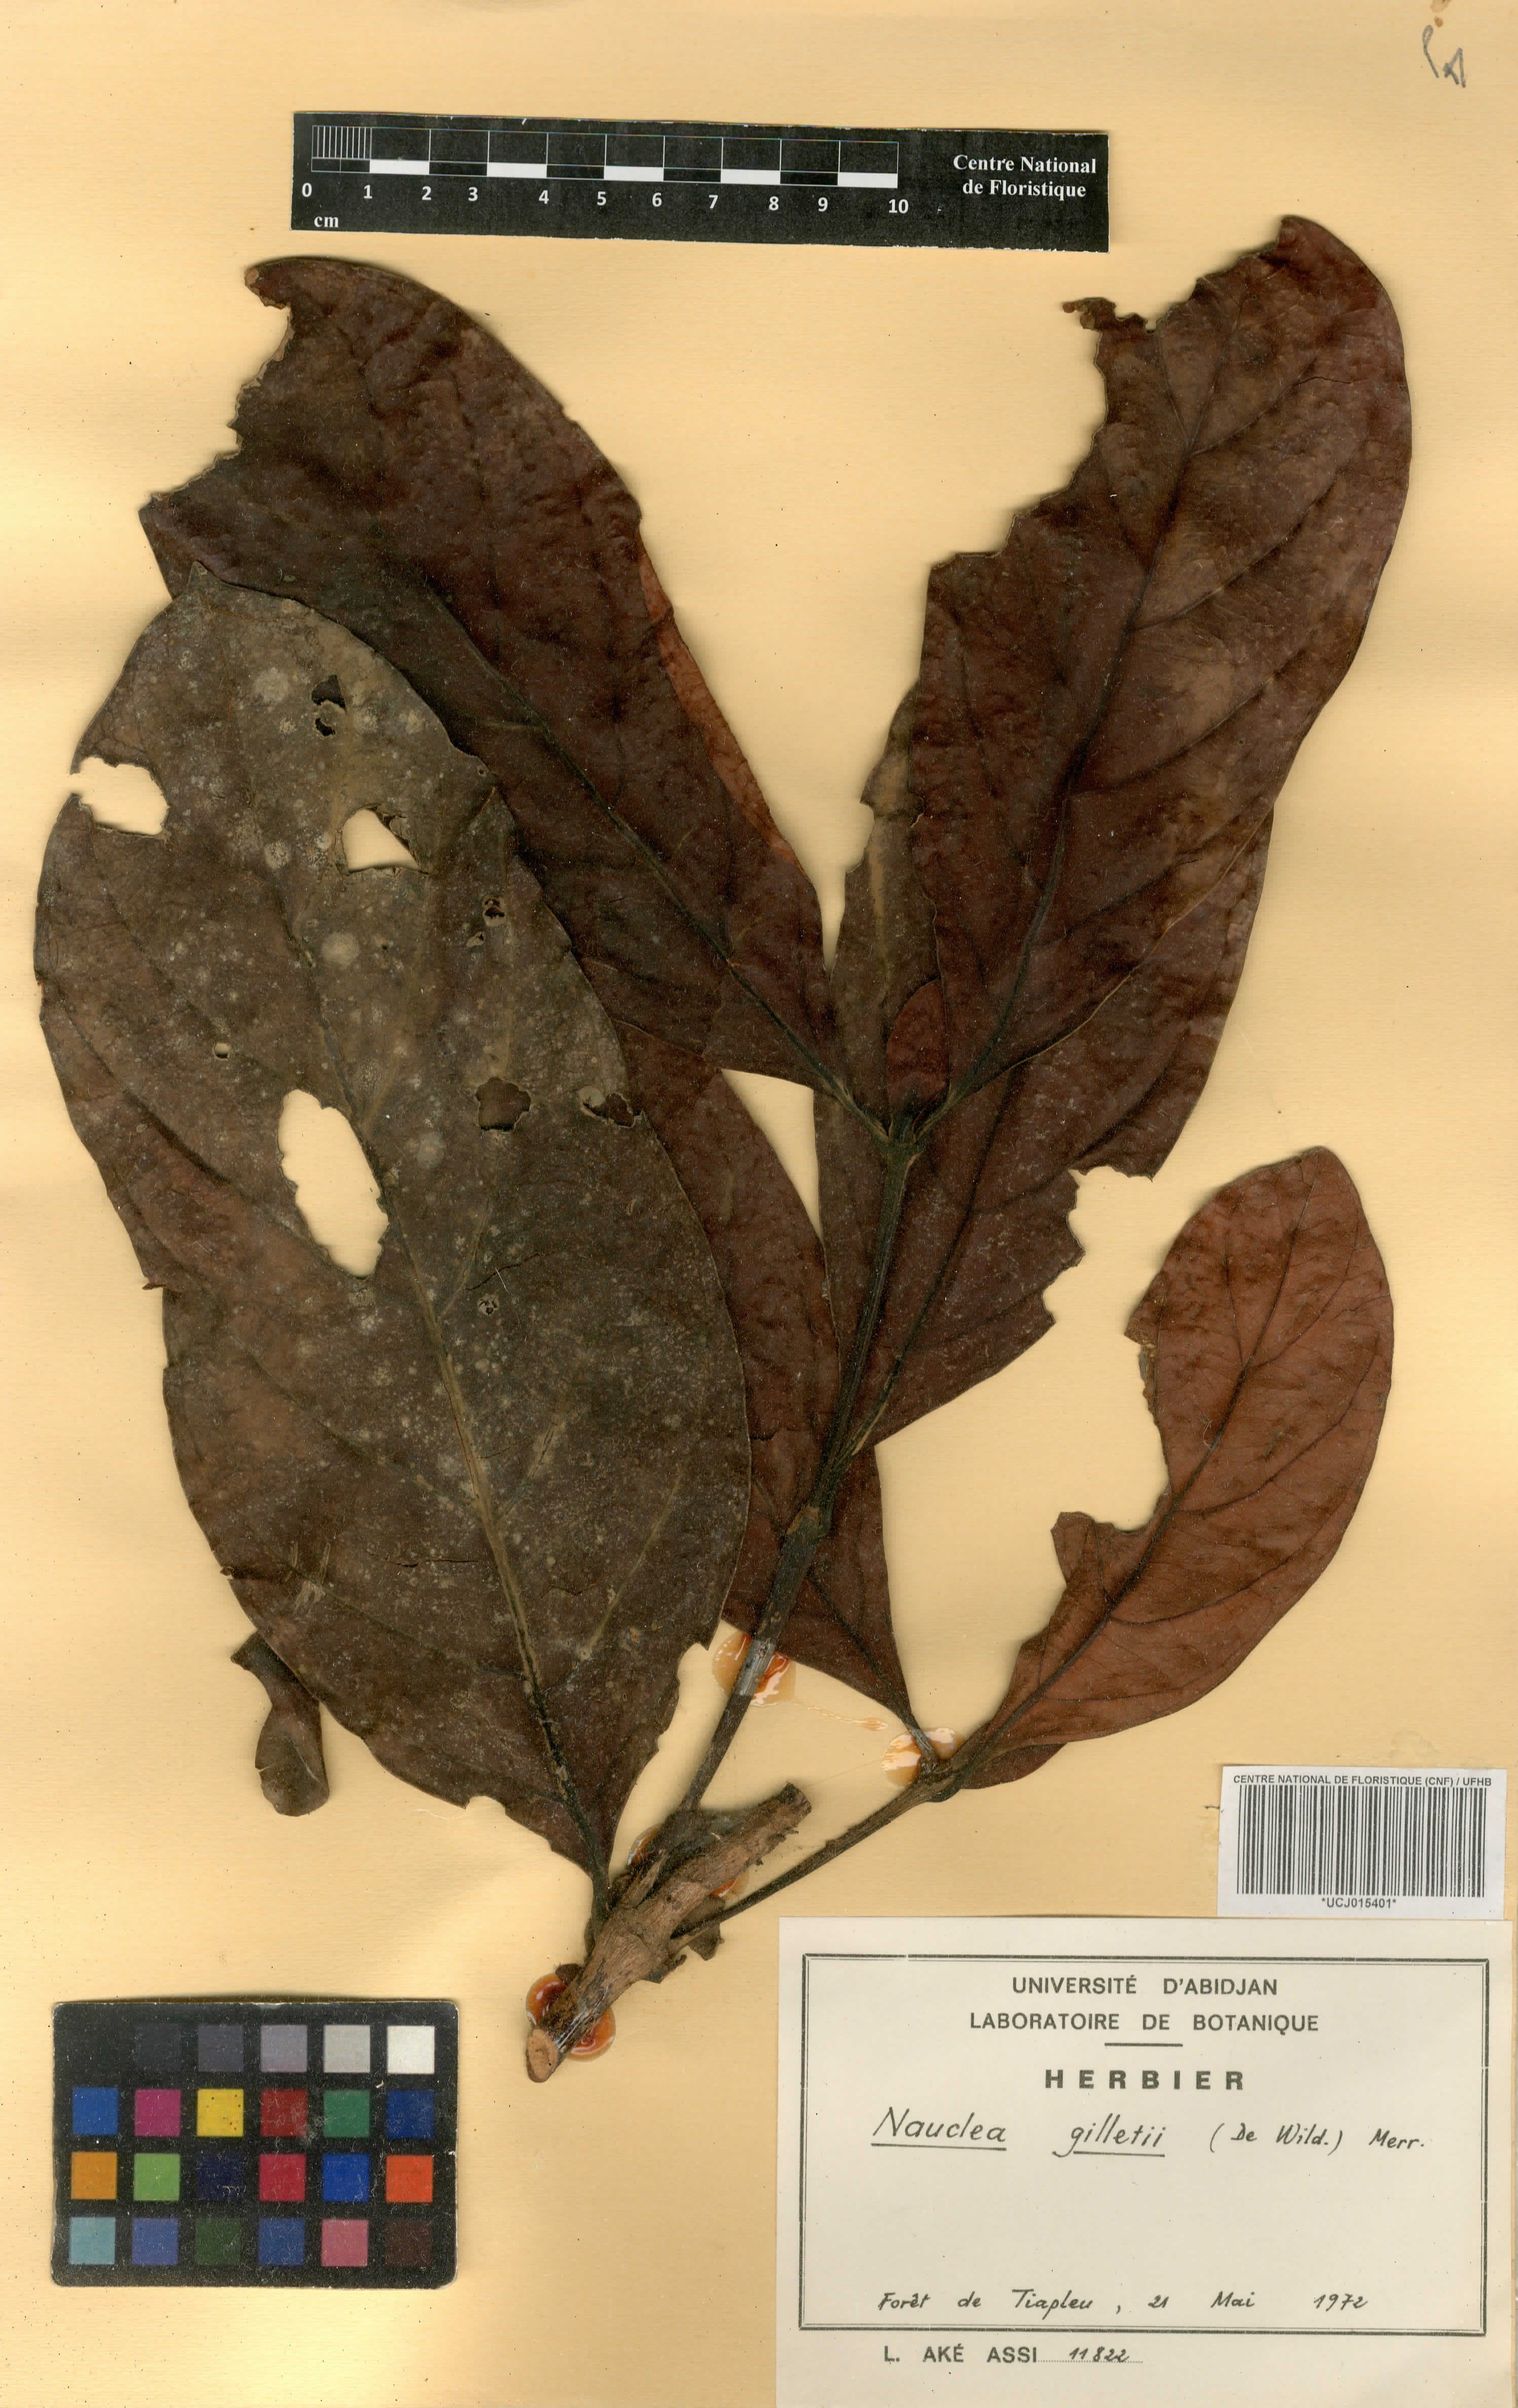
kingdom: Plantae
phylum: Tracheophyta
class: Magnoliopsida
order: Gentianales
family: Rubiaceae
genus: Nauclea
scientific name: Nauclea gilletii
